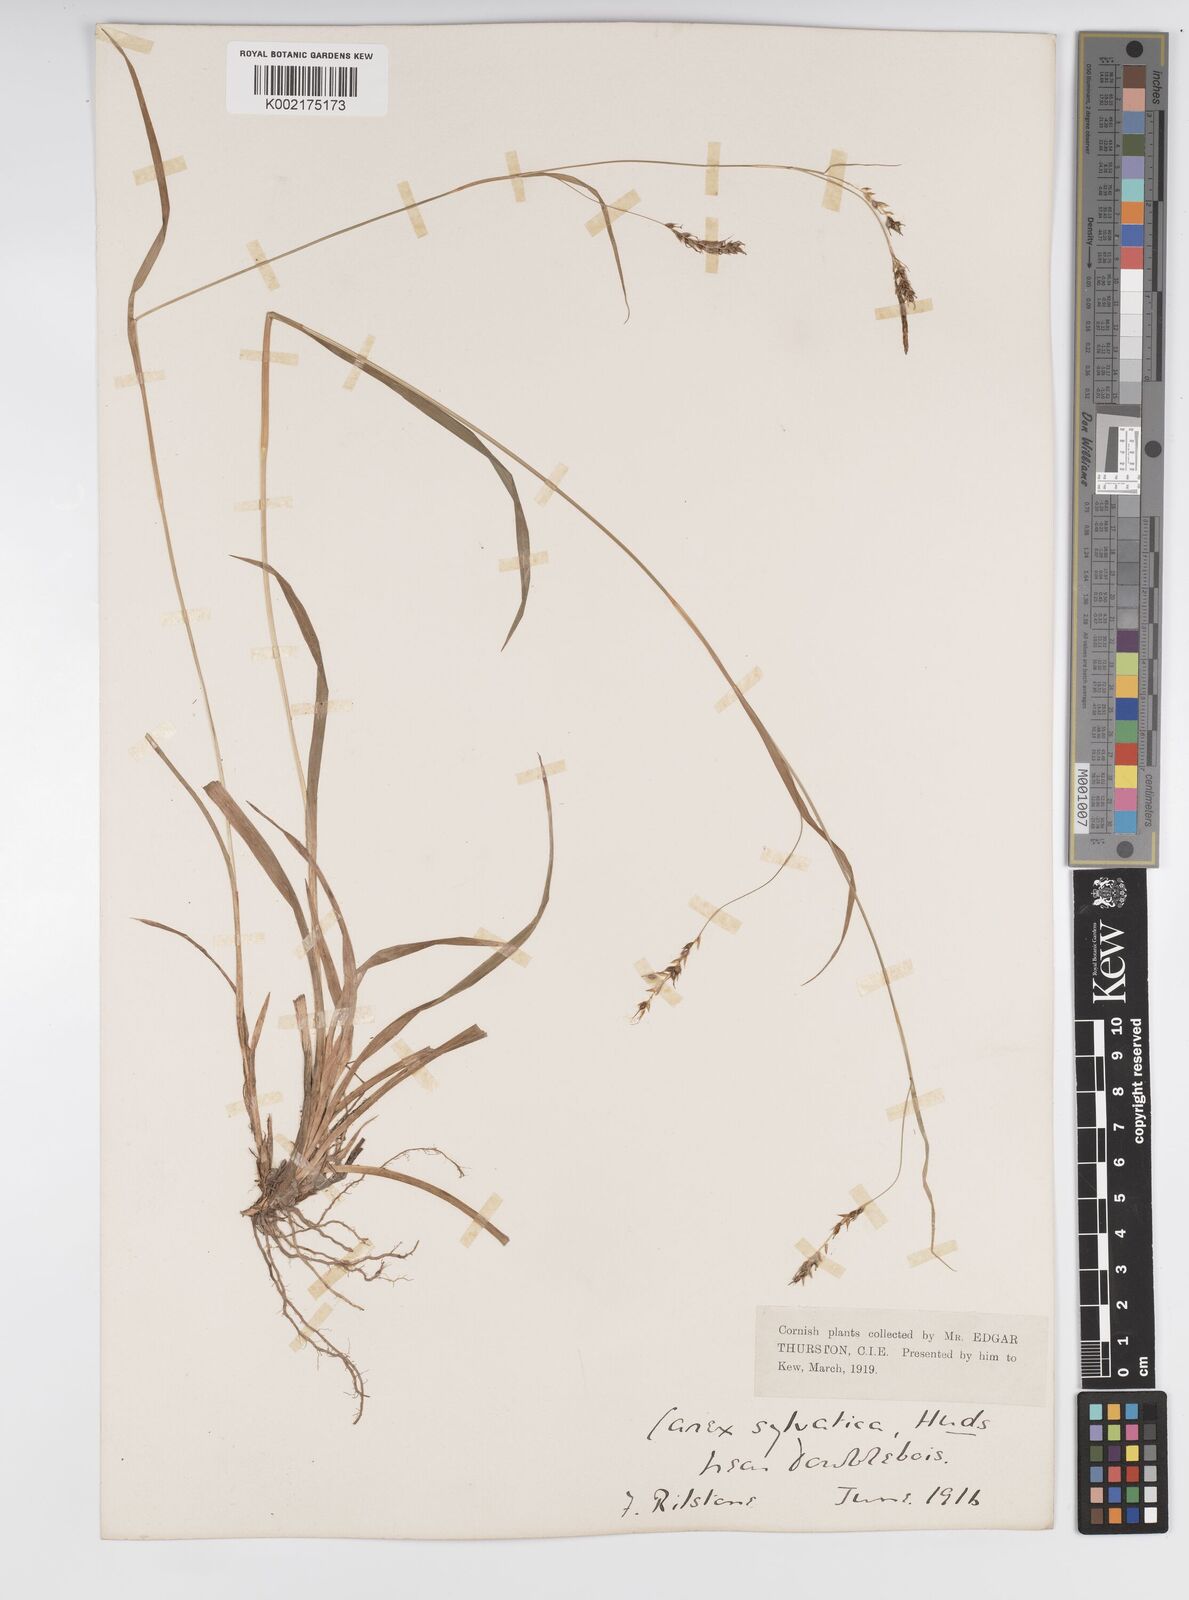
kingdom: Plantae
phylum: Tracheophyta
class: Liliopsida
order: Poales
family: Cyperaceae
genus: Carex
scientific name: Carex sylvatica
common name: Wood-sedge
